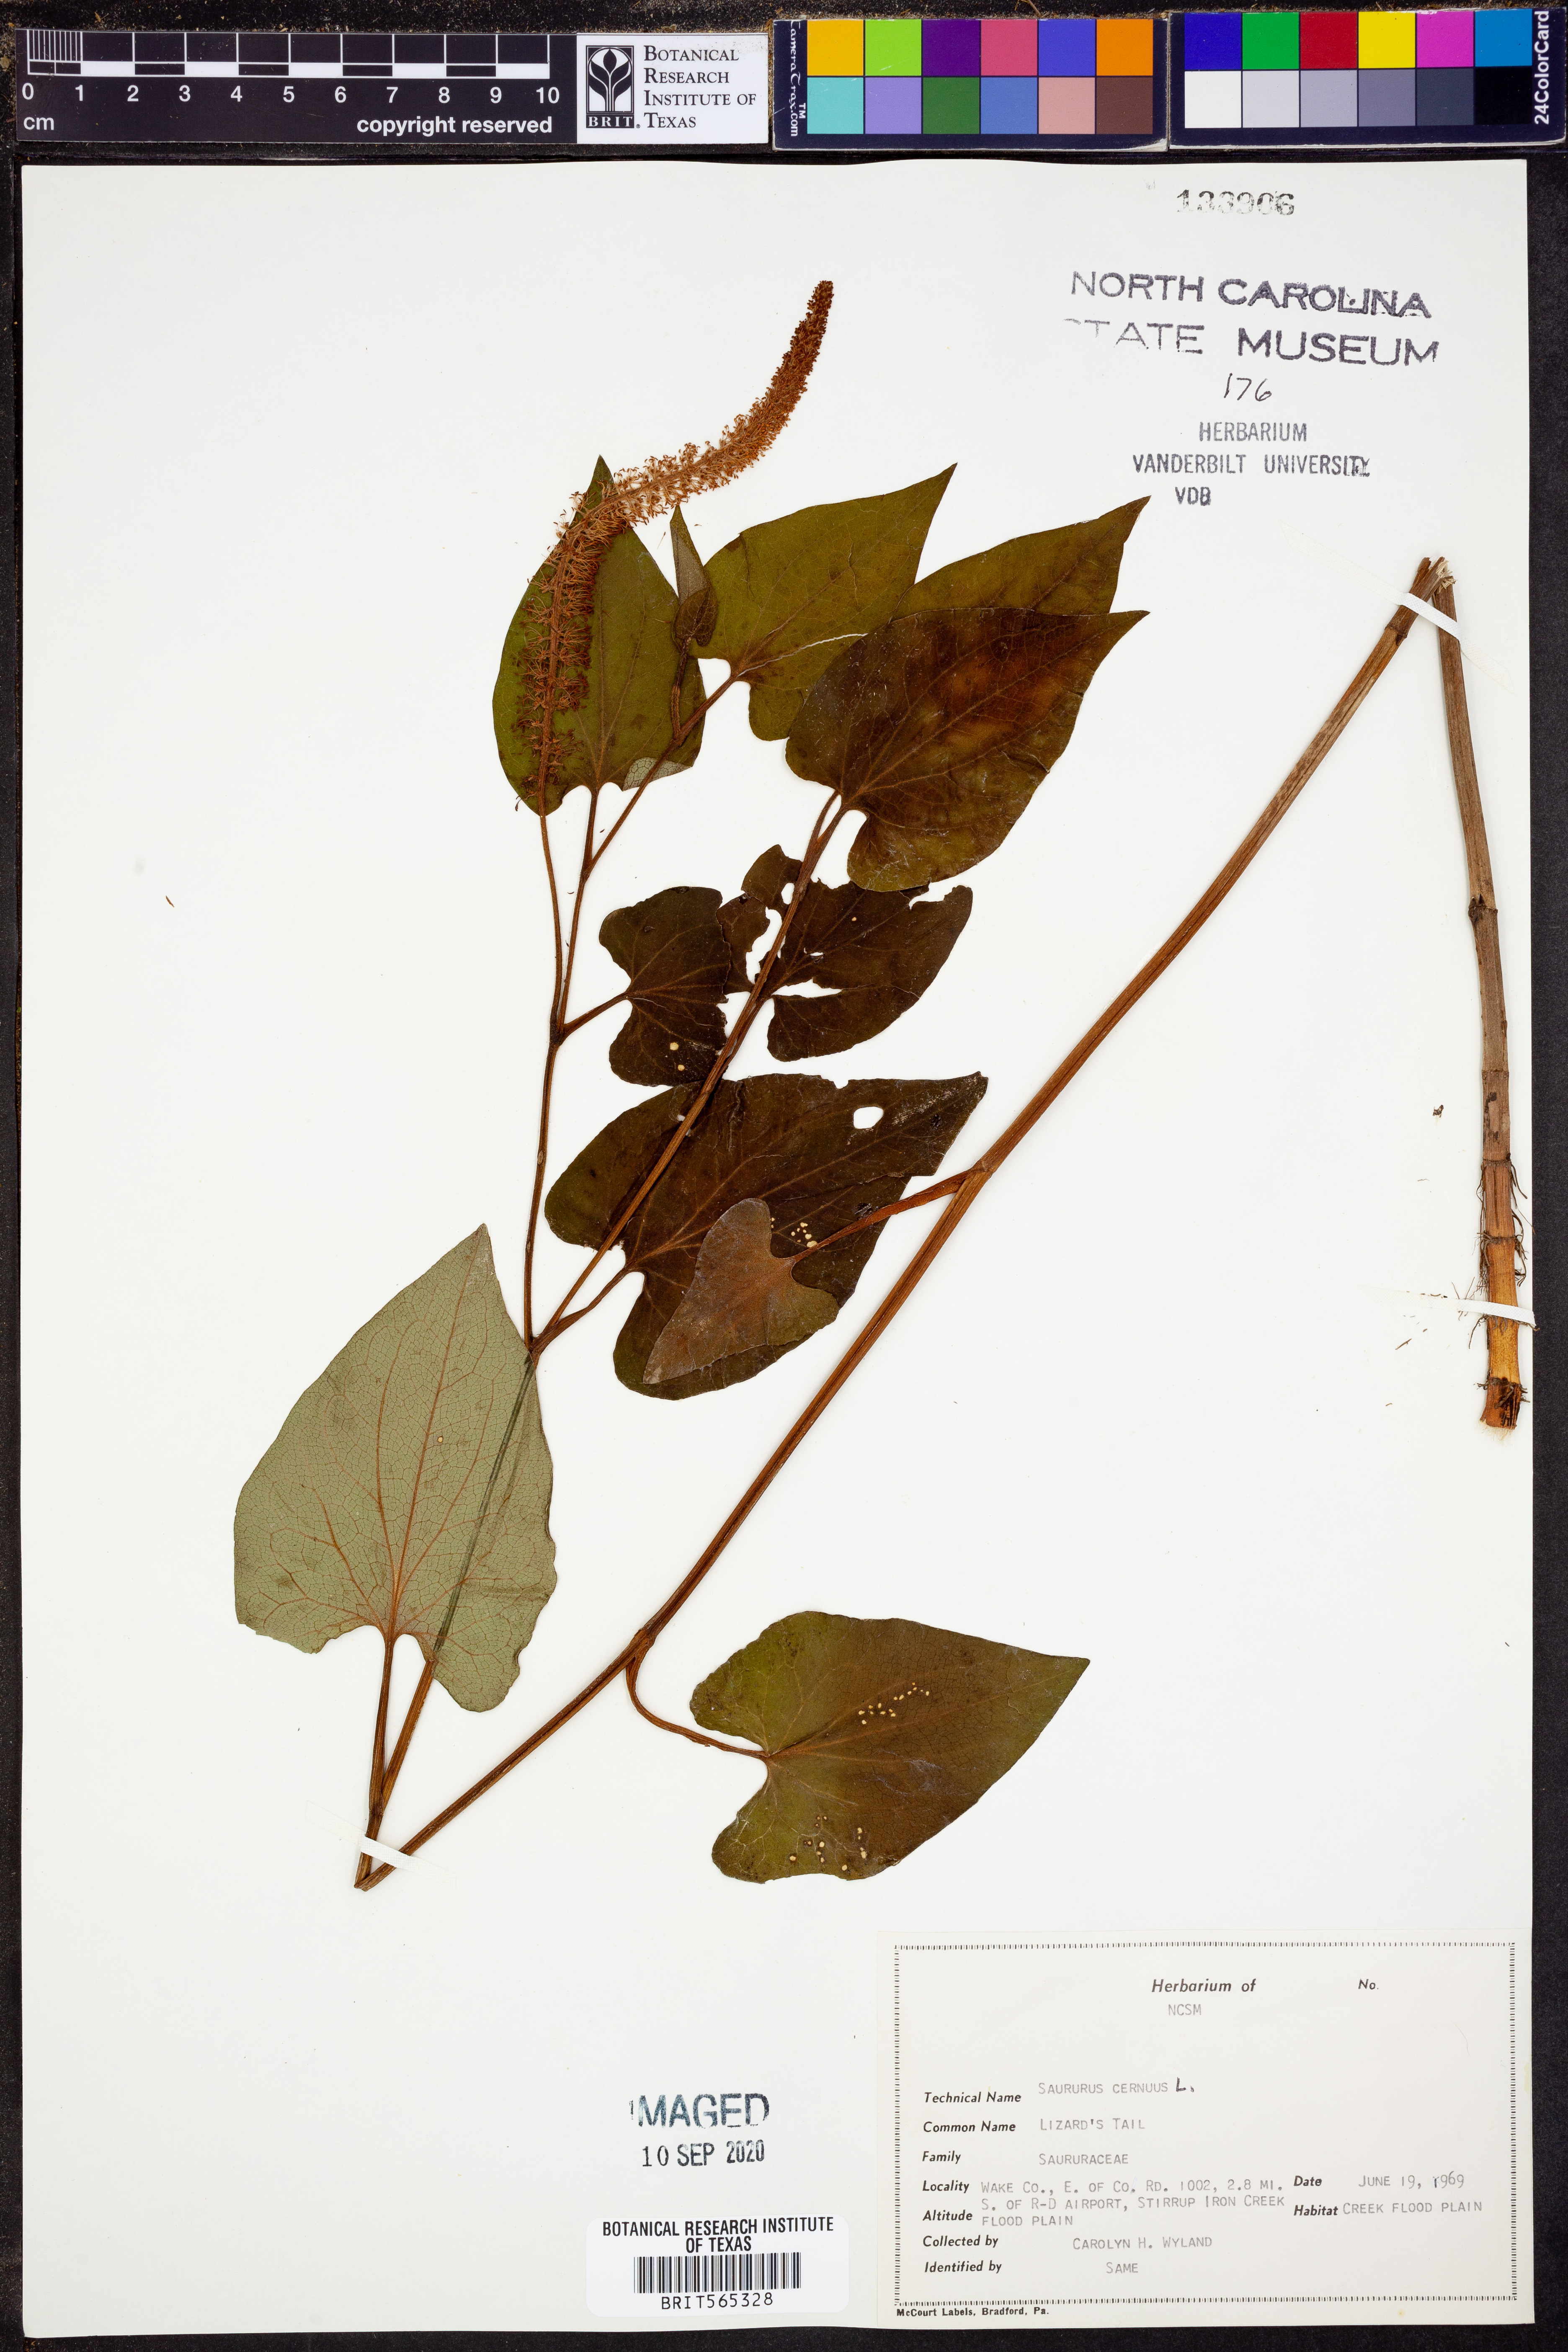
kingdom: Plantae
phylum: Tracheophyta
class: Magnoliopsida
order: Piperales
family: Saururaceae
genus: Saururus
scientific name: Saururus cernuus
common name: Lizard's-tail
